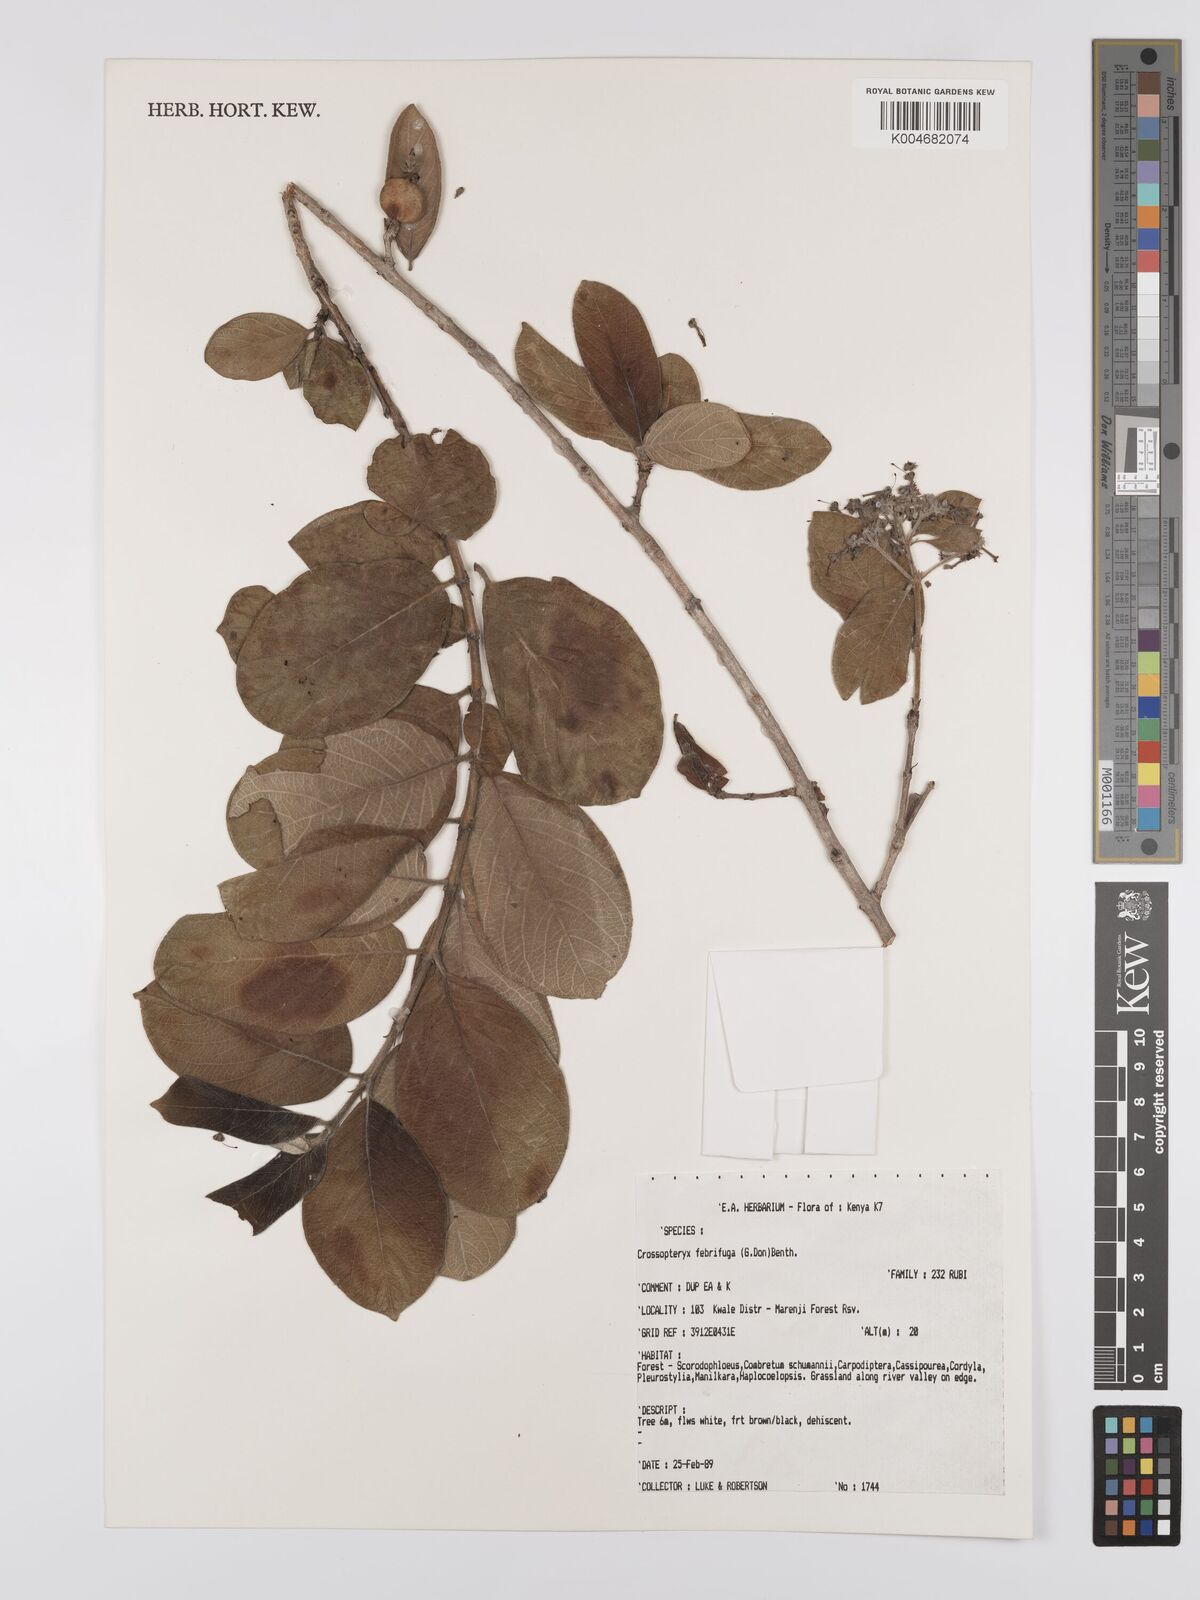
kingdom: Plantae
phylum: Tracheophyta
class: Magnoliopsida
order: Gentianales
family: Rubiaceae
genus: Crossopteryx
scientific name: Crossopteryx febrifuga
